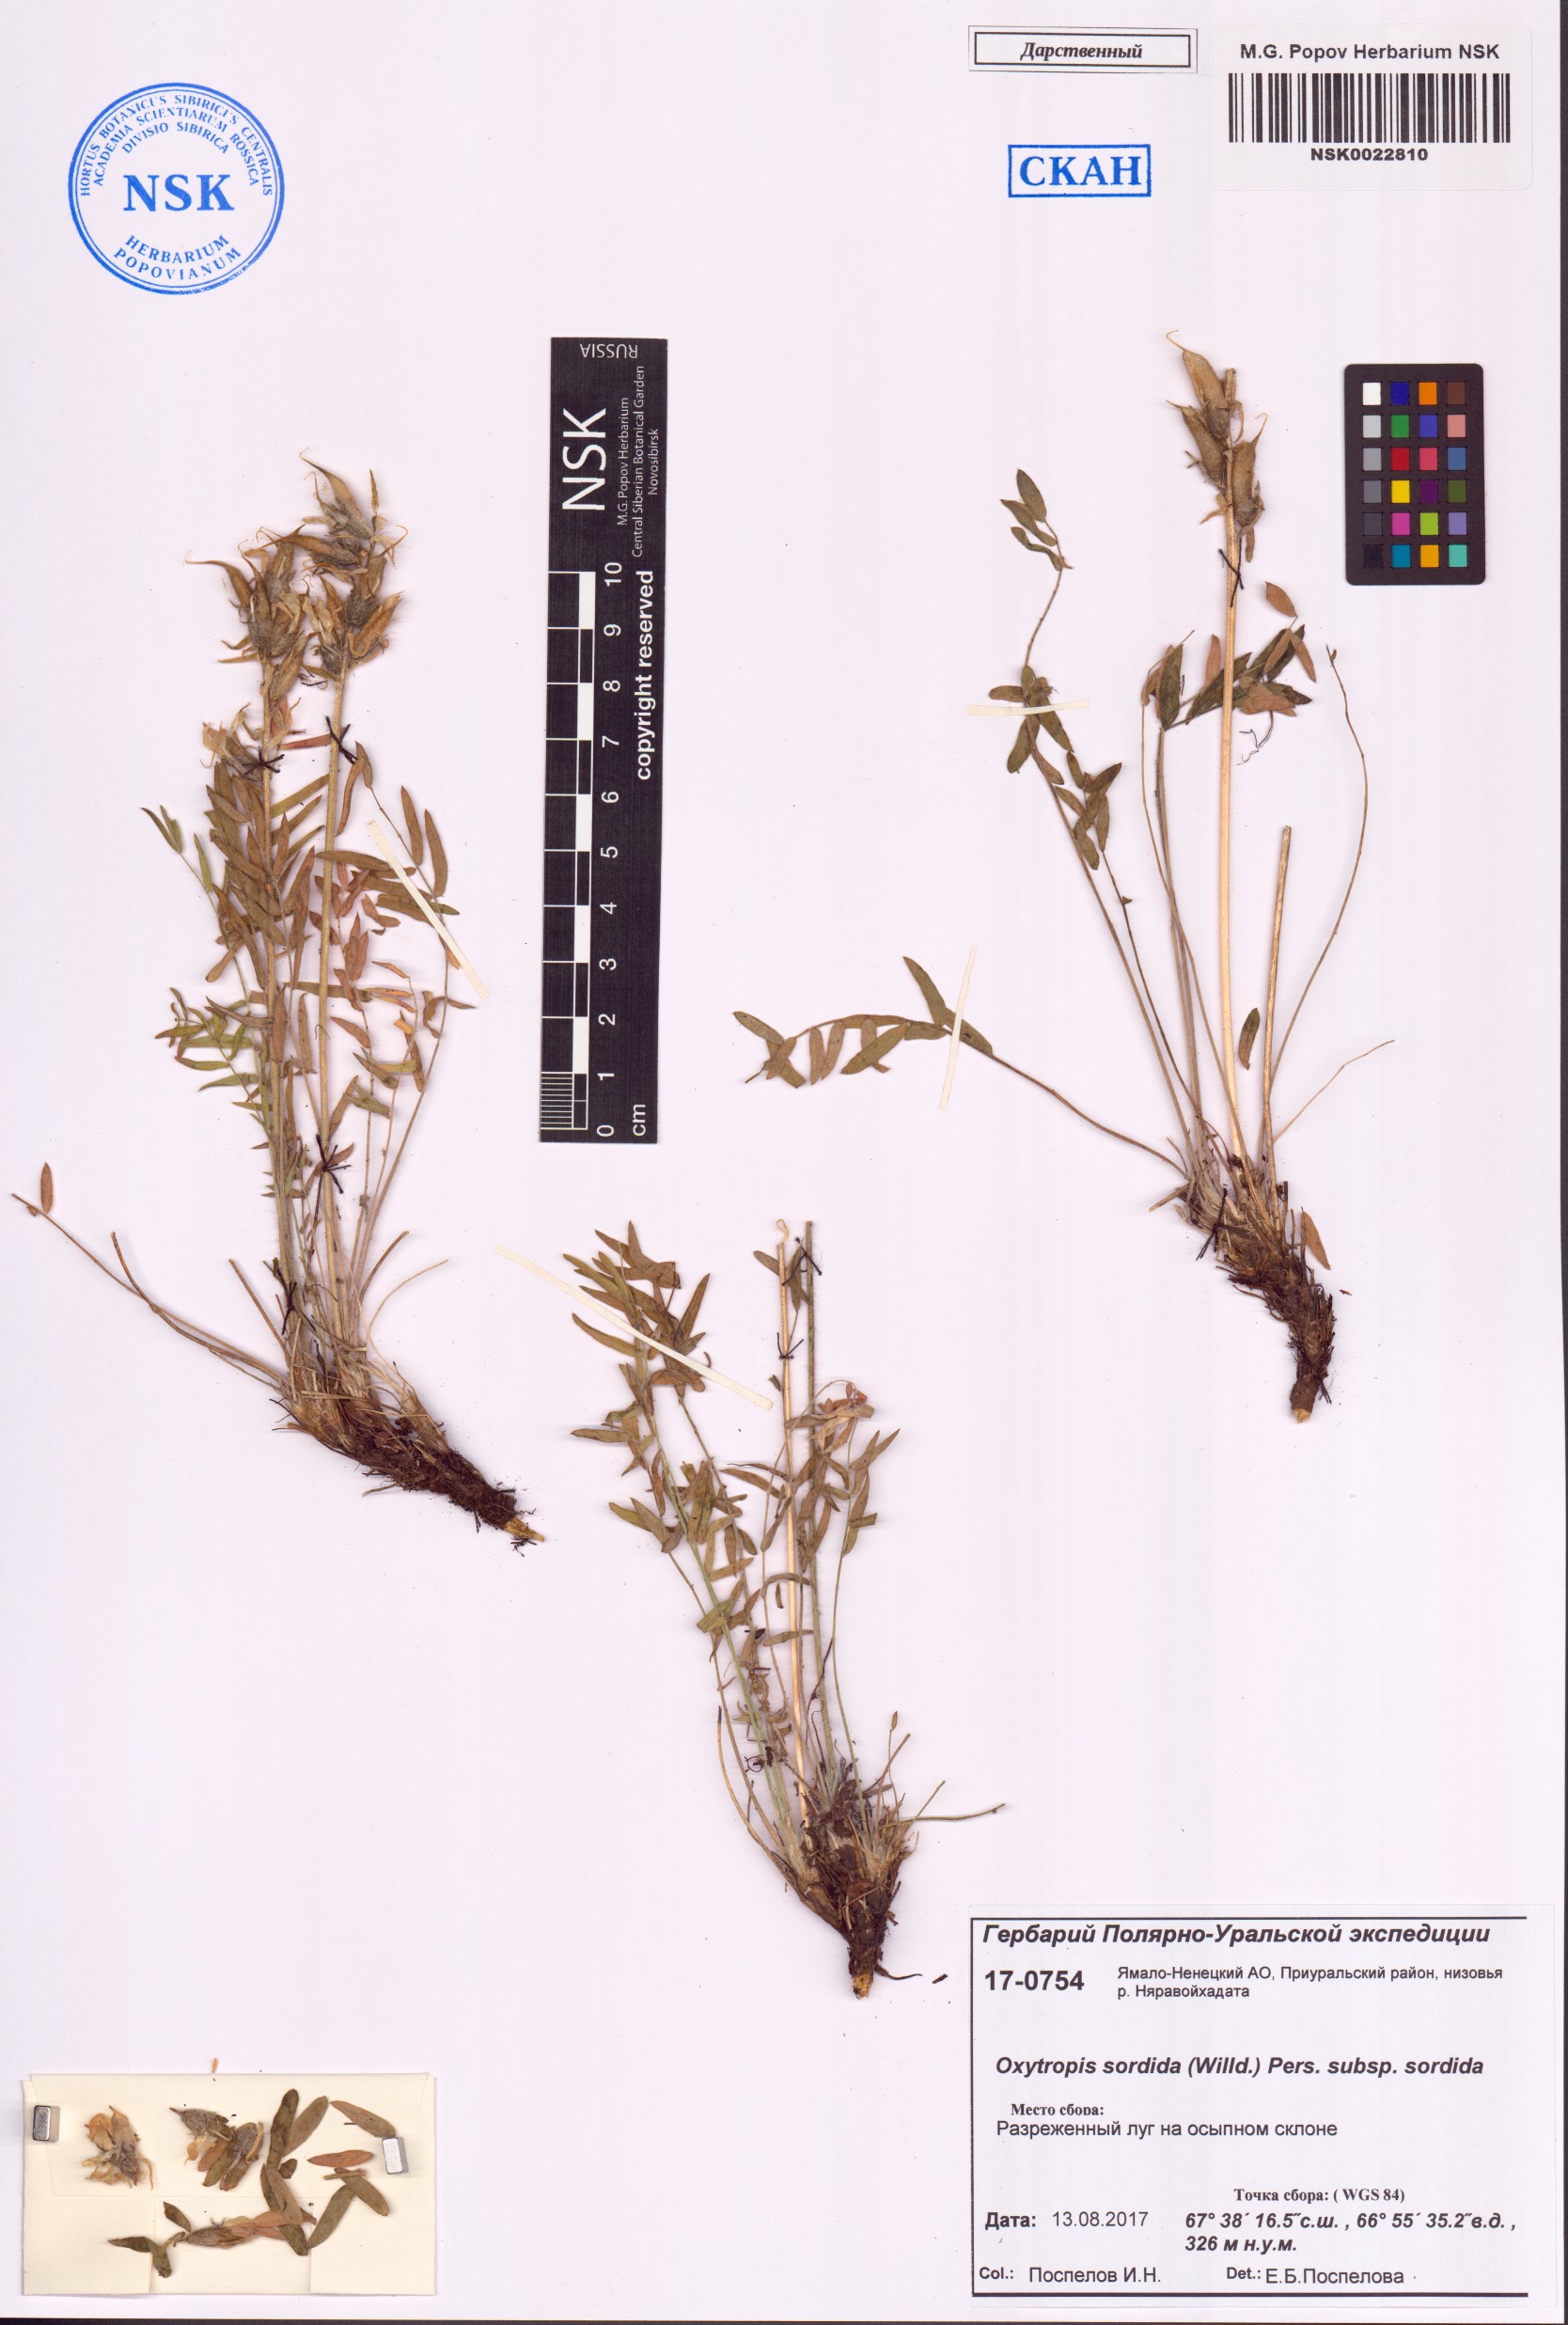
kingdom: Plantae
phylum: Tracheophyta
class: Magnoliopsida
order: Fabales
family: Fabaceae
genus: Oxytropis
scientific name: Oxytropis sordida
